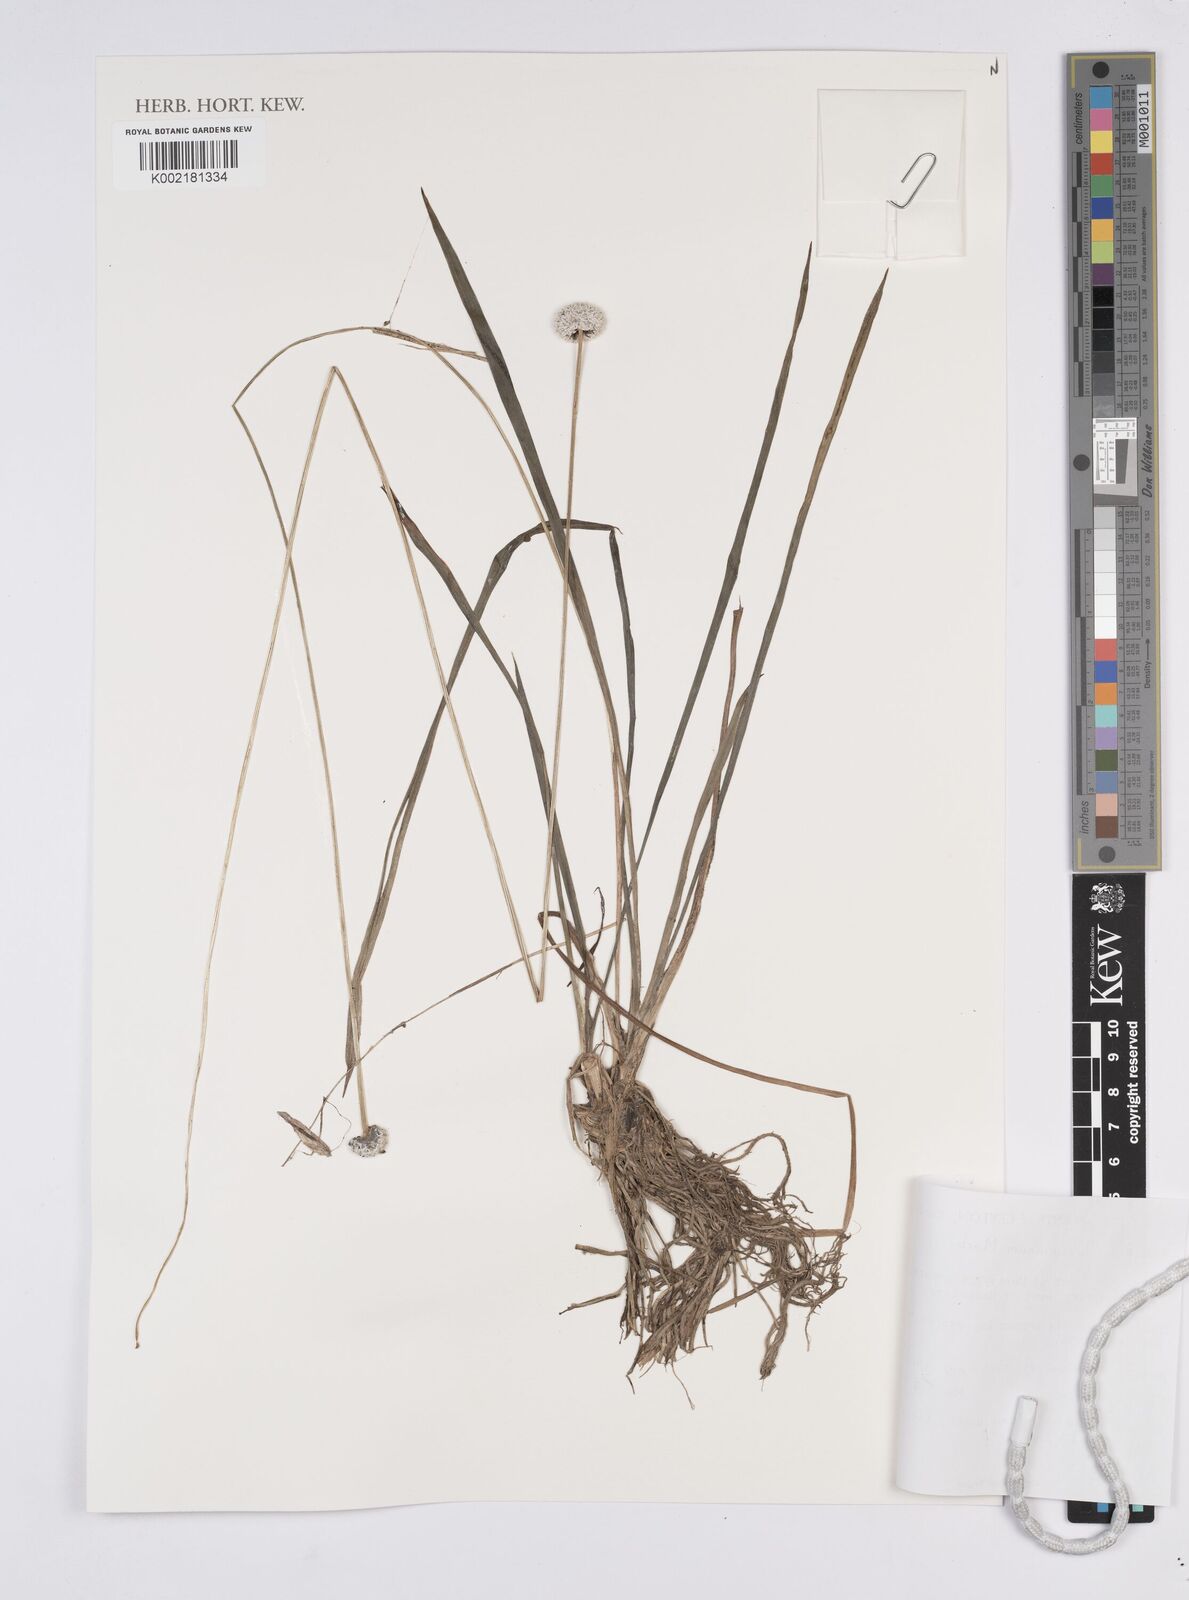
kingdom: Plantae
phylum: Tracheophyta
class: Liliopsida
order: Poales
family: Eriocaulaceae
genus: Eriocaulon
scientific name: Eriocaulon brownianum
